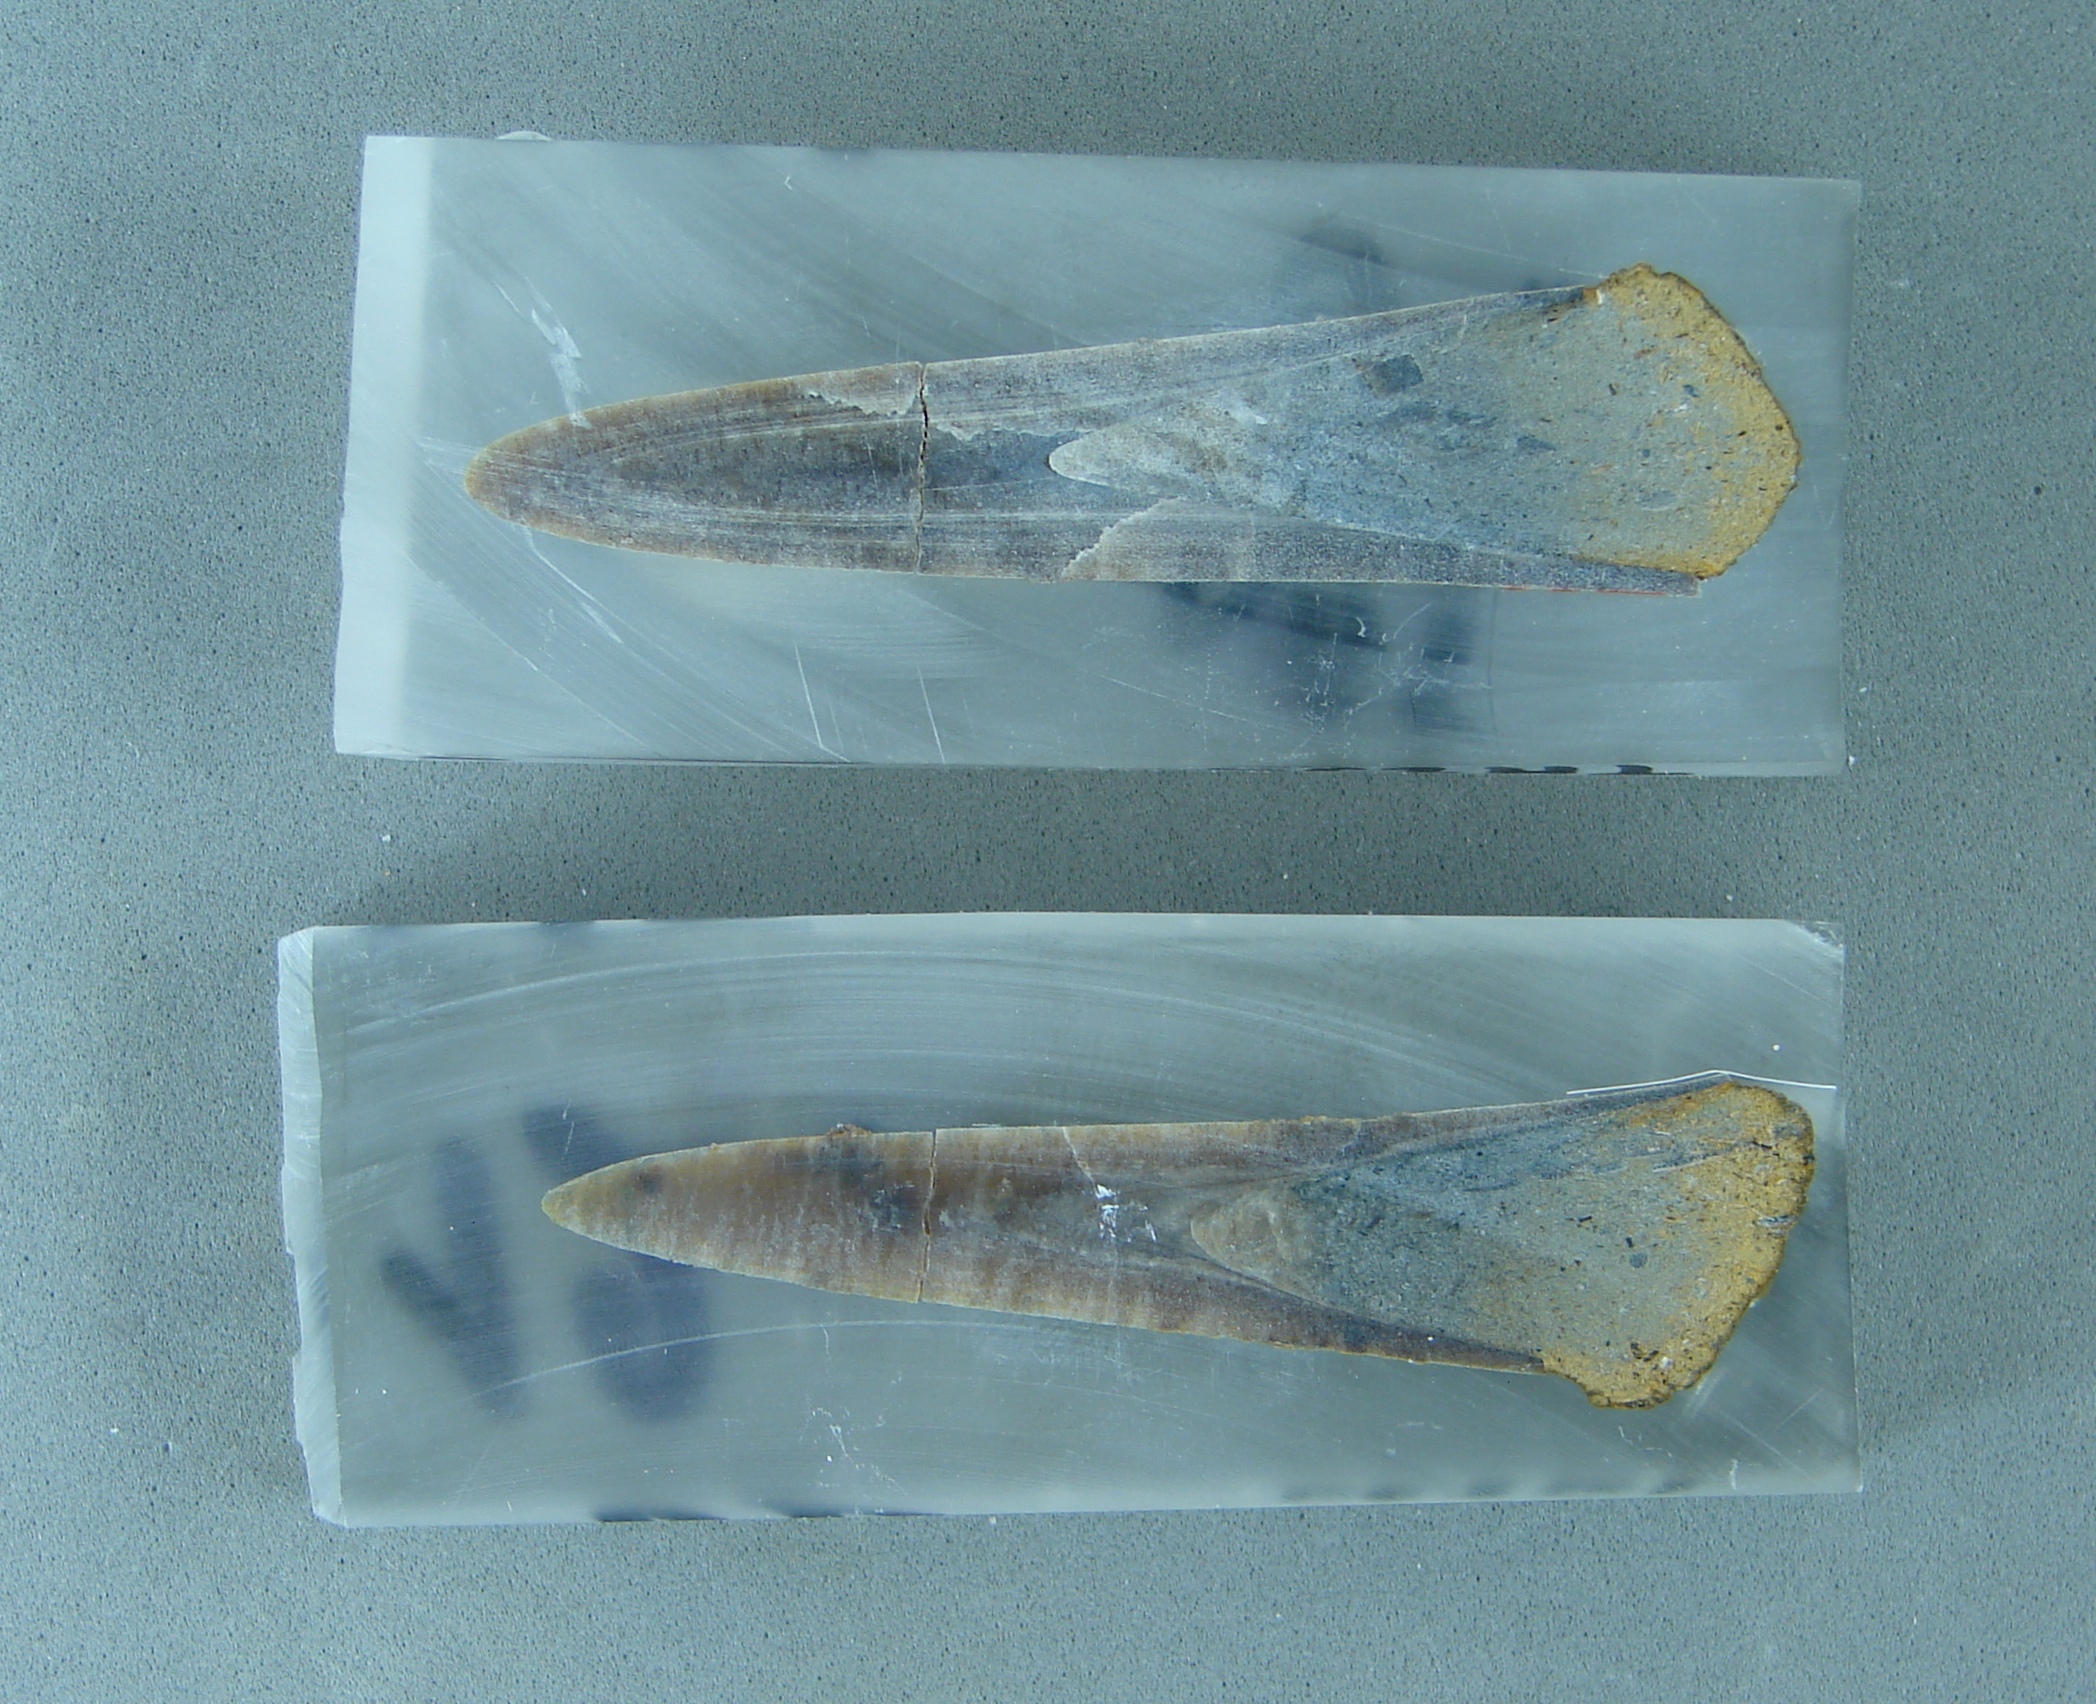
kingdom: Animalia
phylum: Mollusca
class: Cephalopoda
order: Belemnitida
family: Megateuthididae
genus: Dactyloteuthis
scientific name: Dactyloteuthis semistriata
